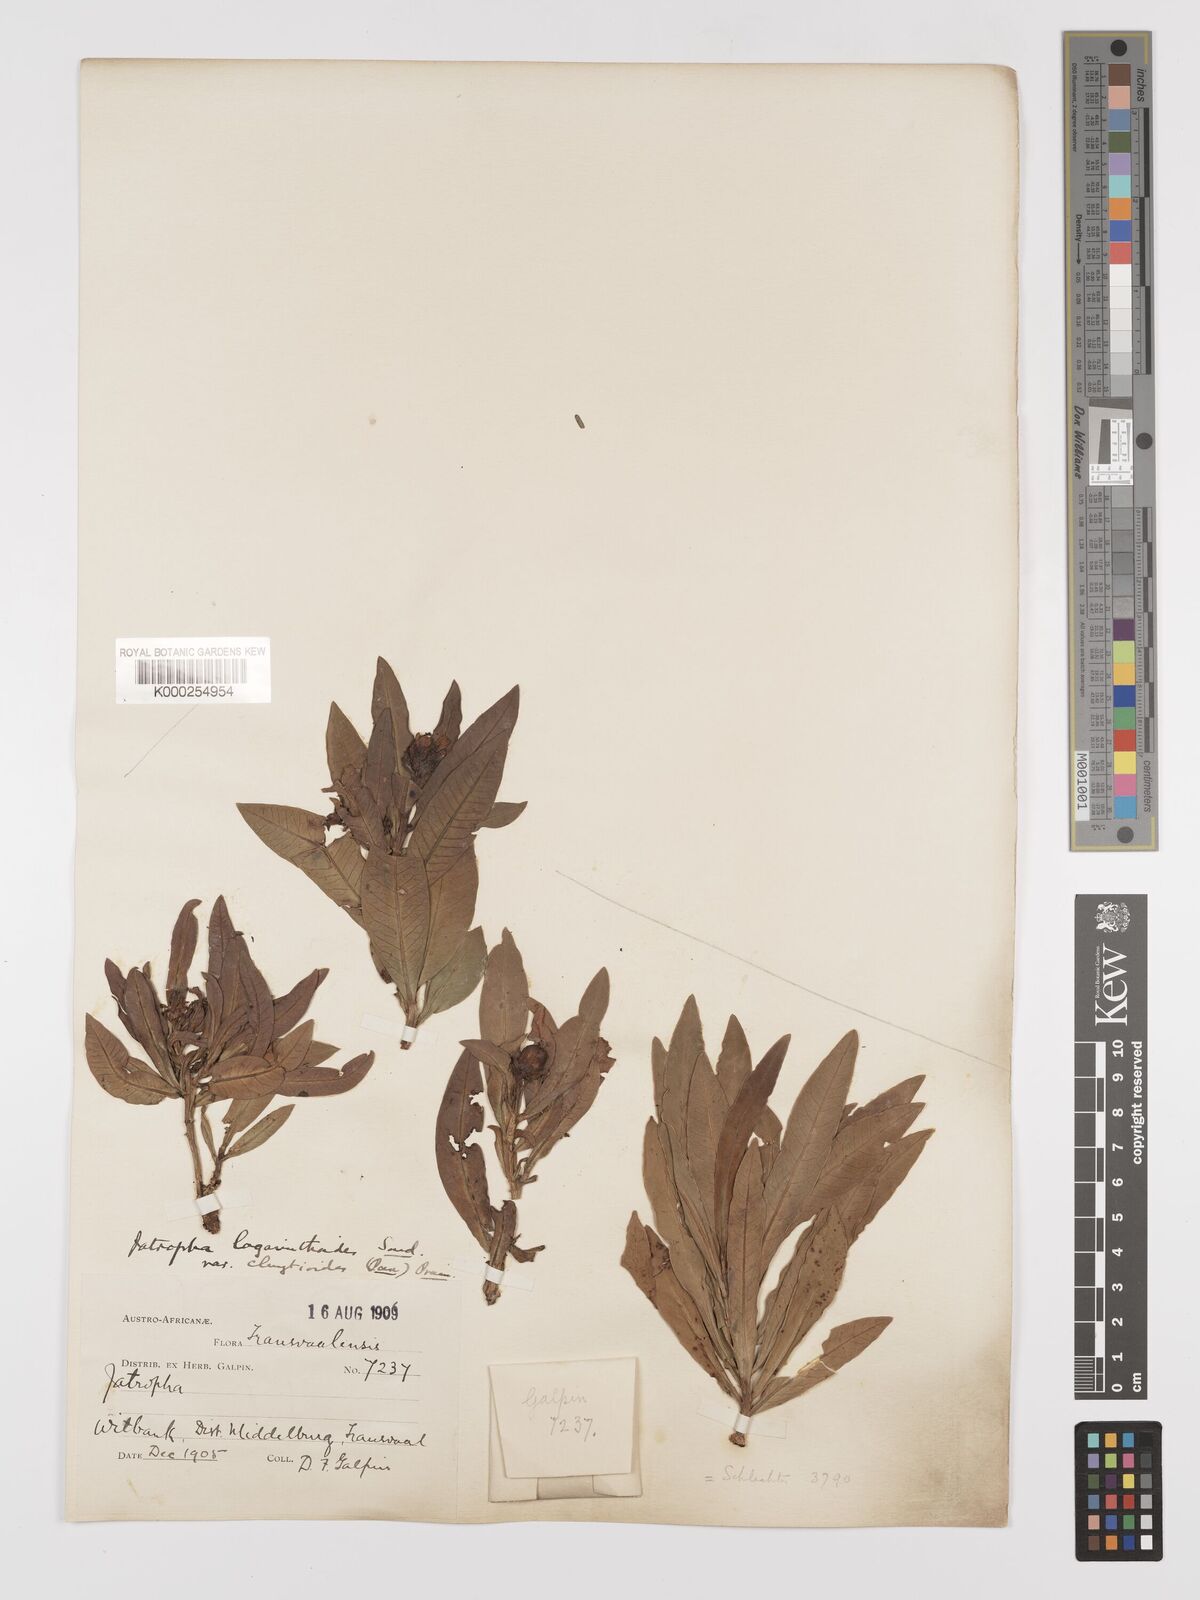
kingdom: Plantae
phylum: Tracheophyta
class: Magnoliopsida
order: Malpighiales
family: Euphorbiaceae
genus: Jatropha
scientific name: Jatropha lagarinthoides
